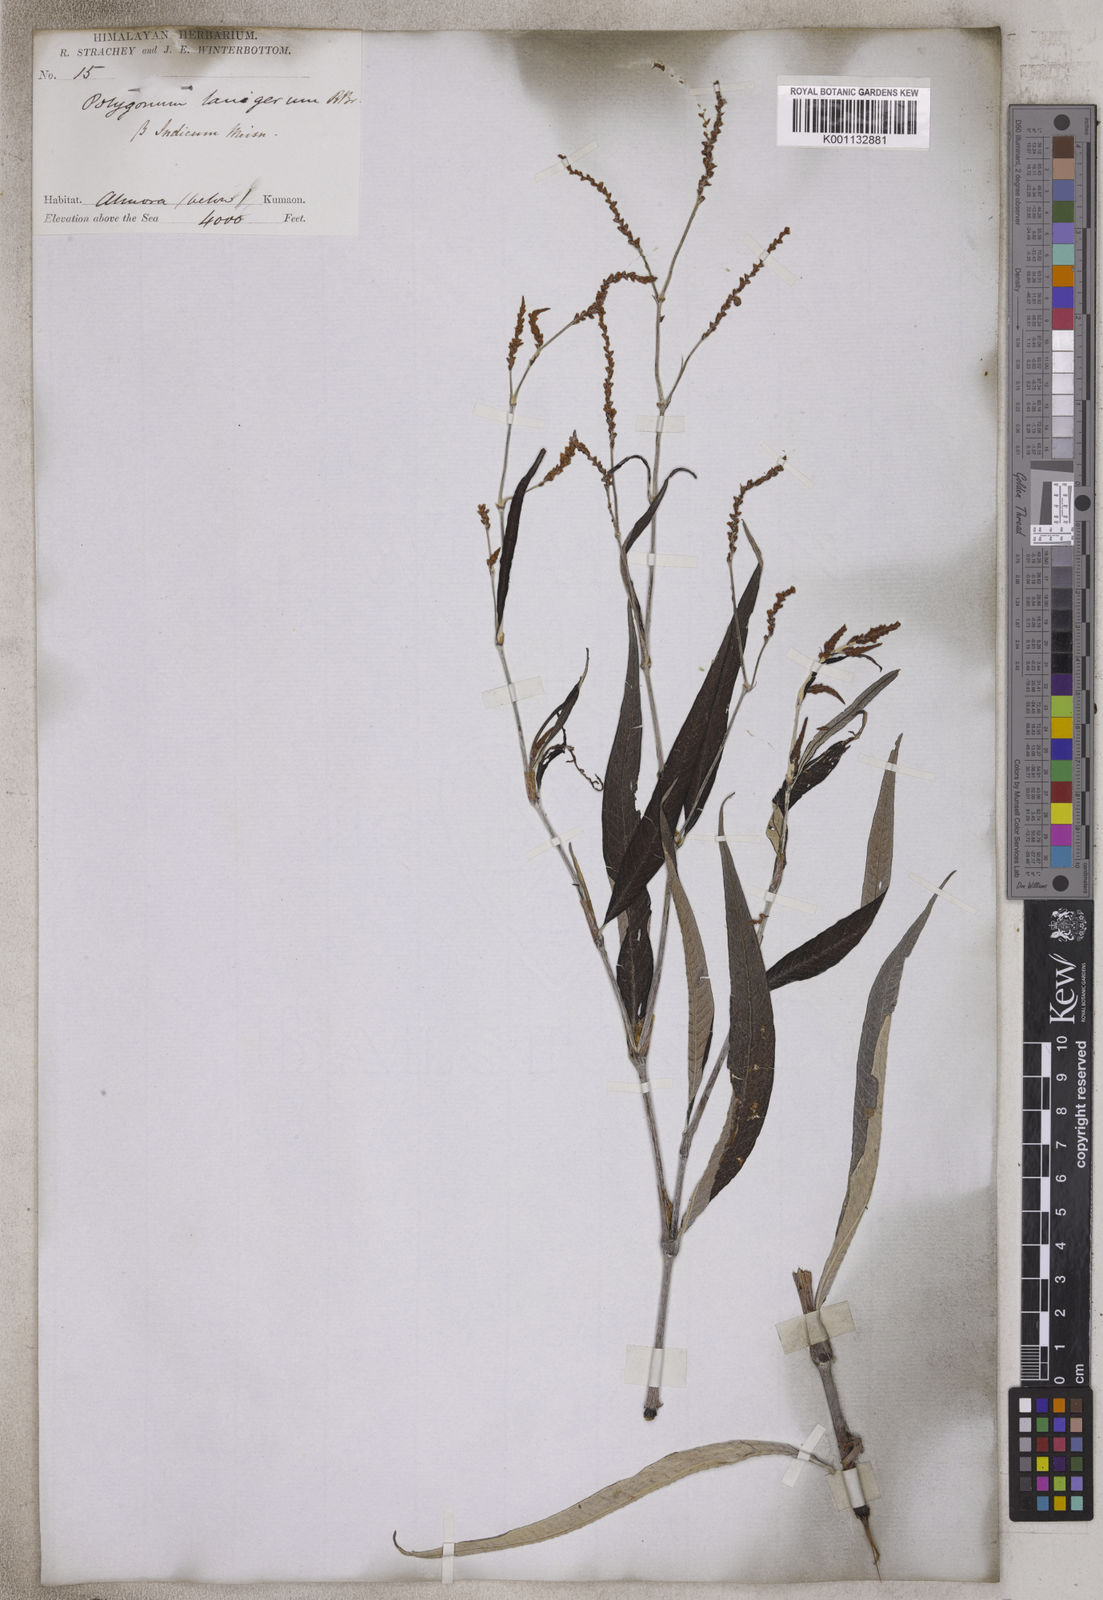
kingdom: Plantae
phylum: Tracheophyta
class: Magnoliopsida
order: Caryophyllales
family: Polygonaceae
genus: Persicaria
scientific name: Persicaria lanigera
